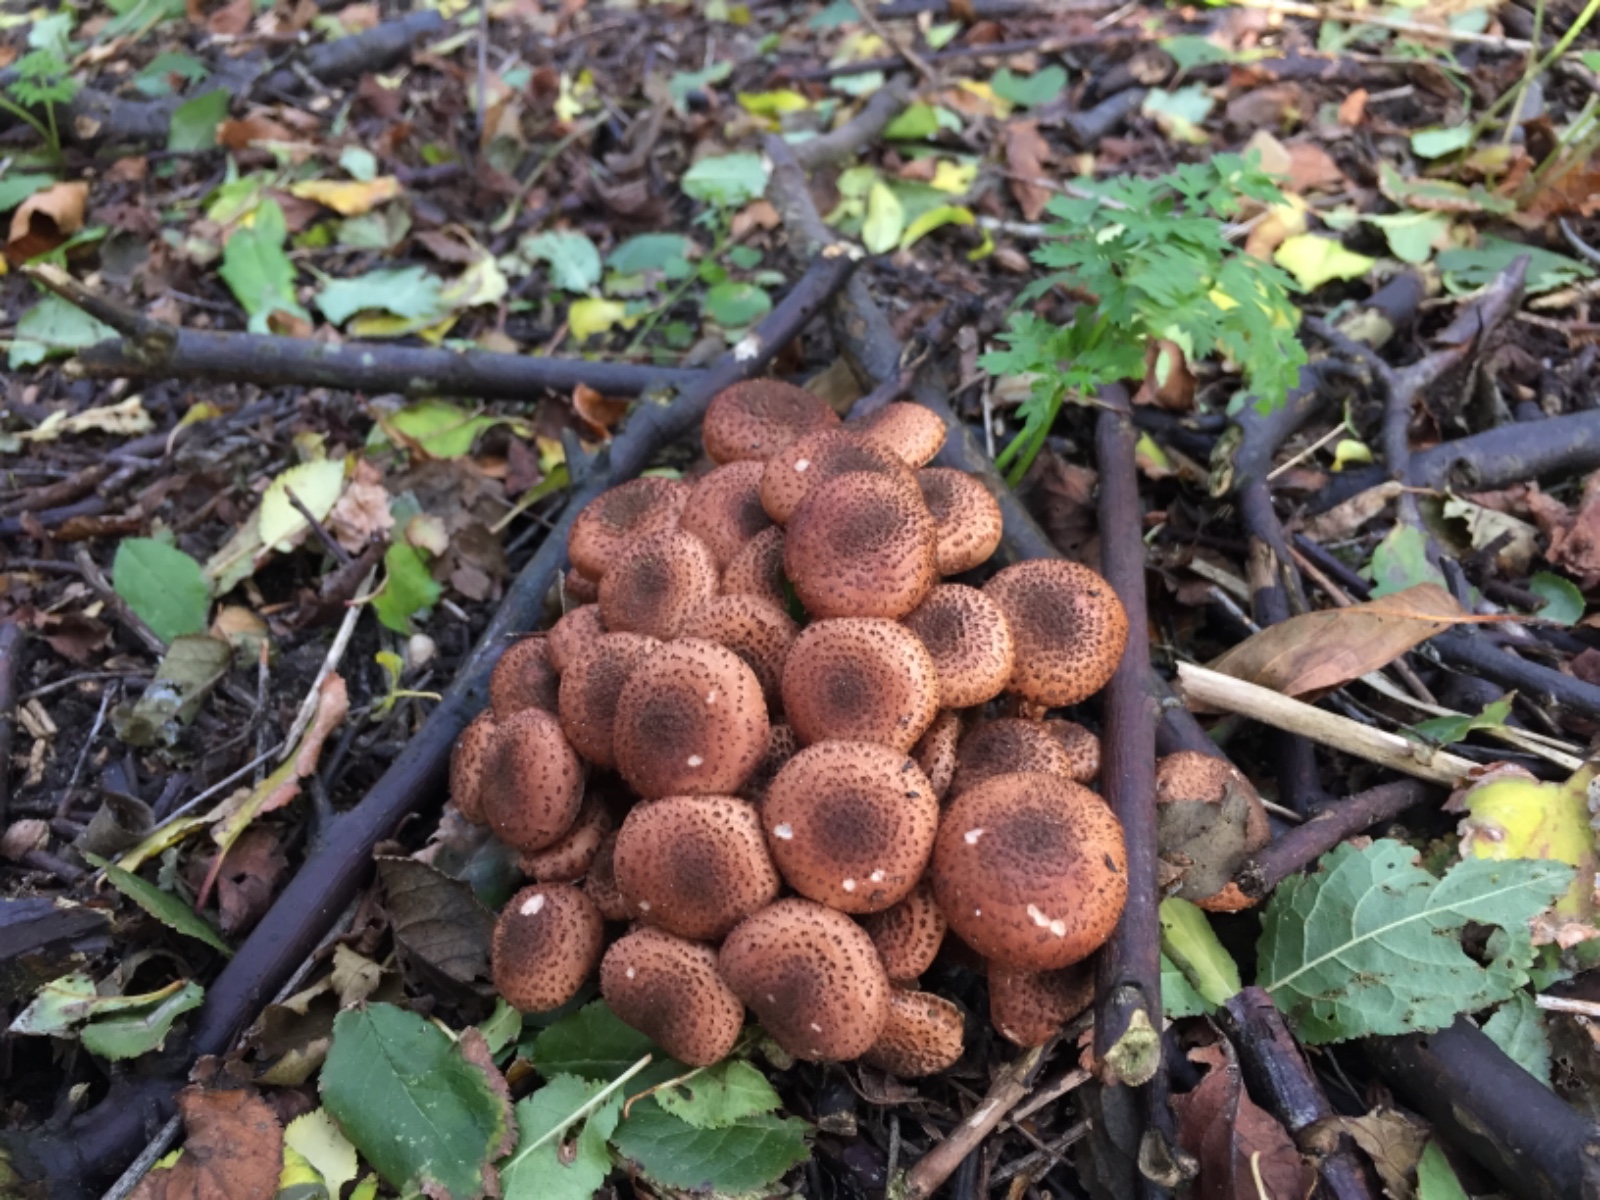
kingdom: Fungi
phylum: Basidiomycota
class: Agaricomycetes
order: Agaricales
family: Physalacriaceae
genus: Armillaria
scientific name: Armillaria ostoyae
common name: mørk honningsvamp
